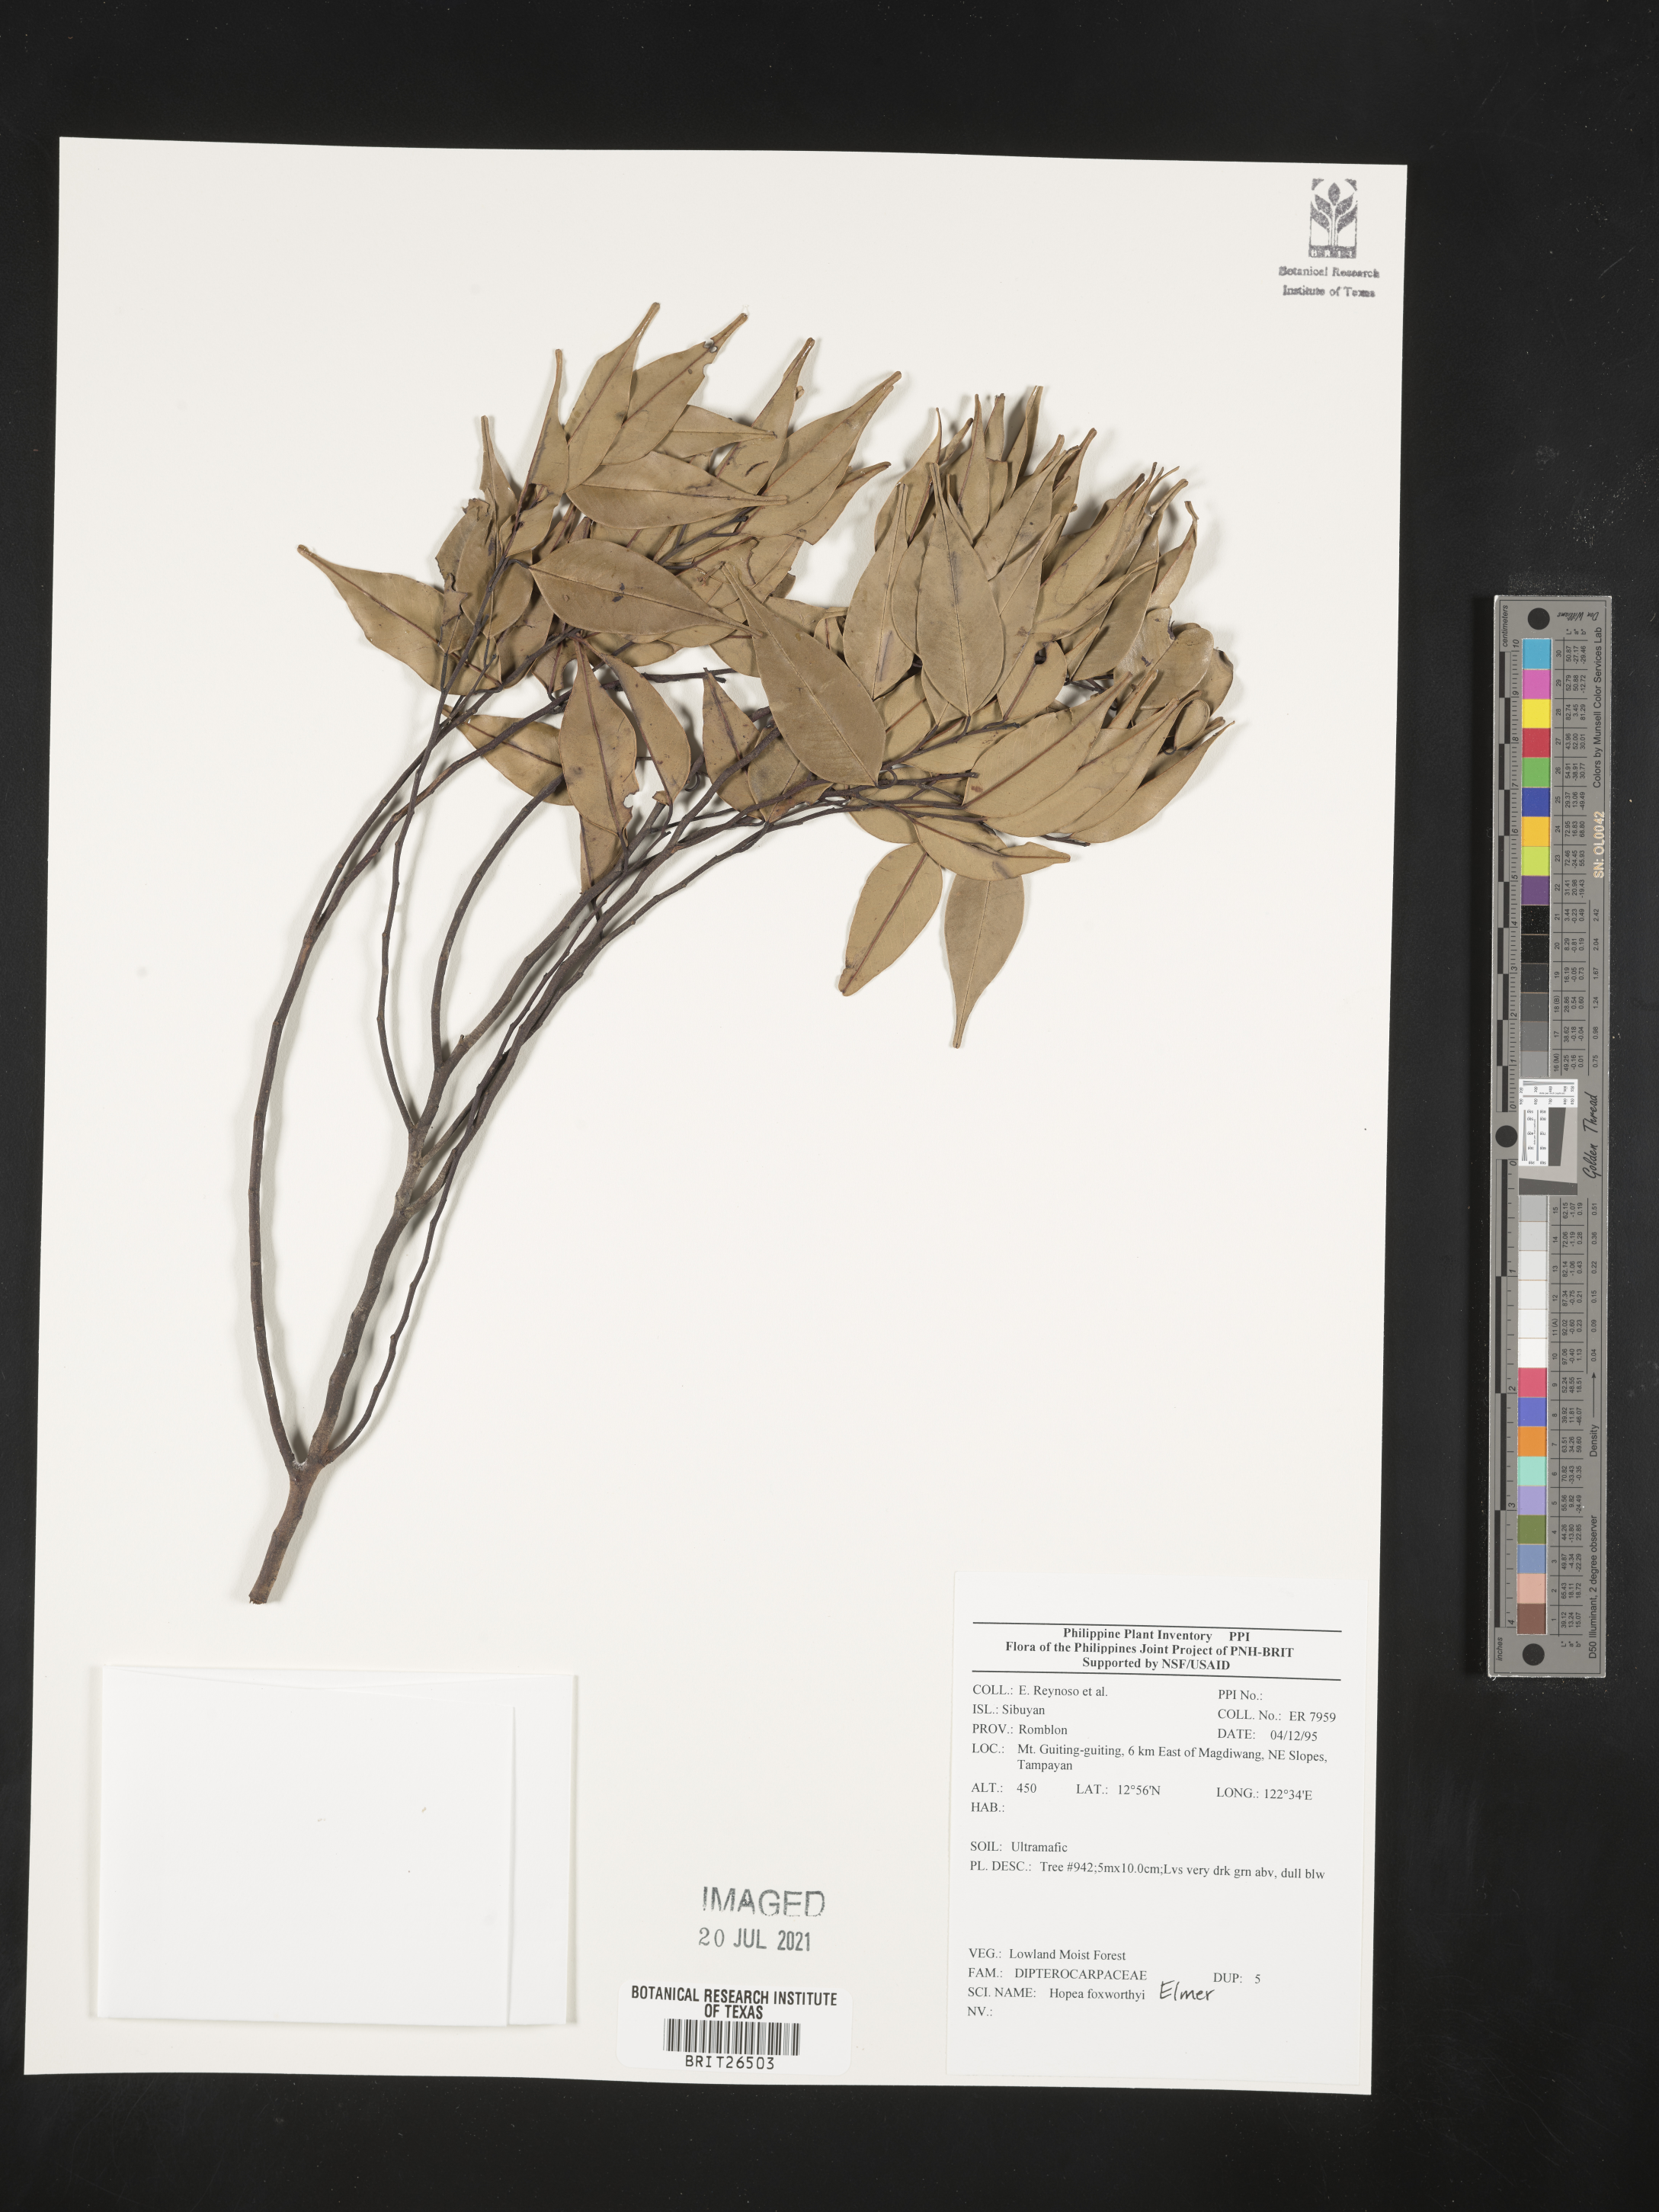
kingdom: Plantae
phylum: Tracheophyta
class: Magnoliopsida
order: Malvales
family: Dipterocarpaceae
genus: Hopea
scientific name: Hopea foxworthyi
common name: Dalingdingan
